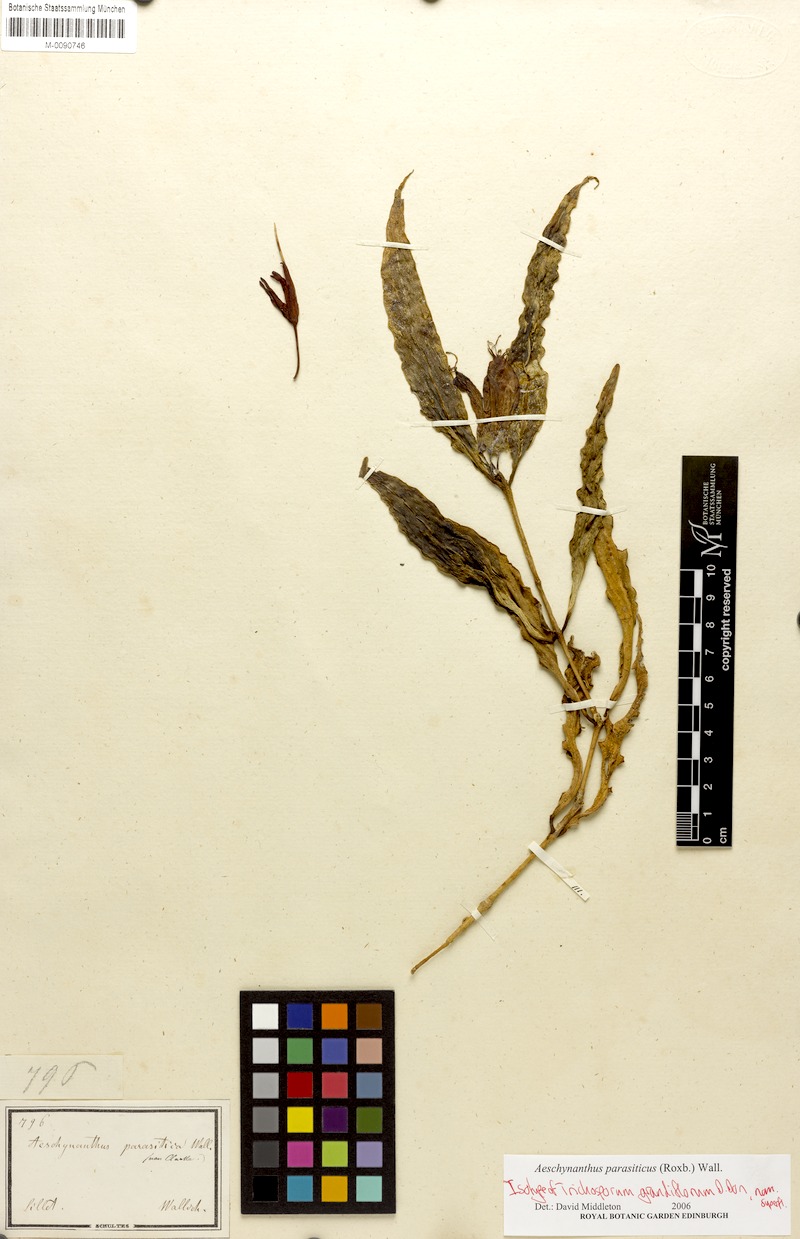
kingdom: Plantae
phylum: Tracheophyta
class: Magnoliopsida
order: Lamiales
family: Gesneriaceae
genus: Aeschynanthus
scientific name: Aeschynanthus parasiticus
